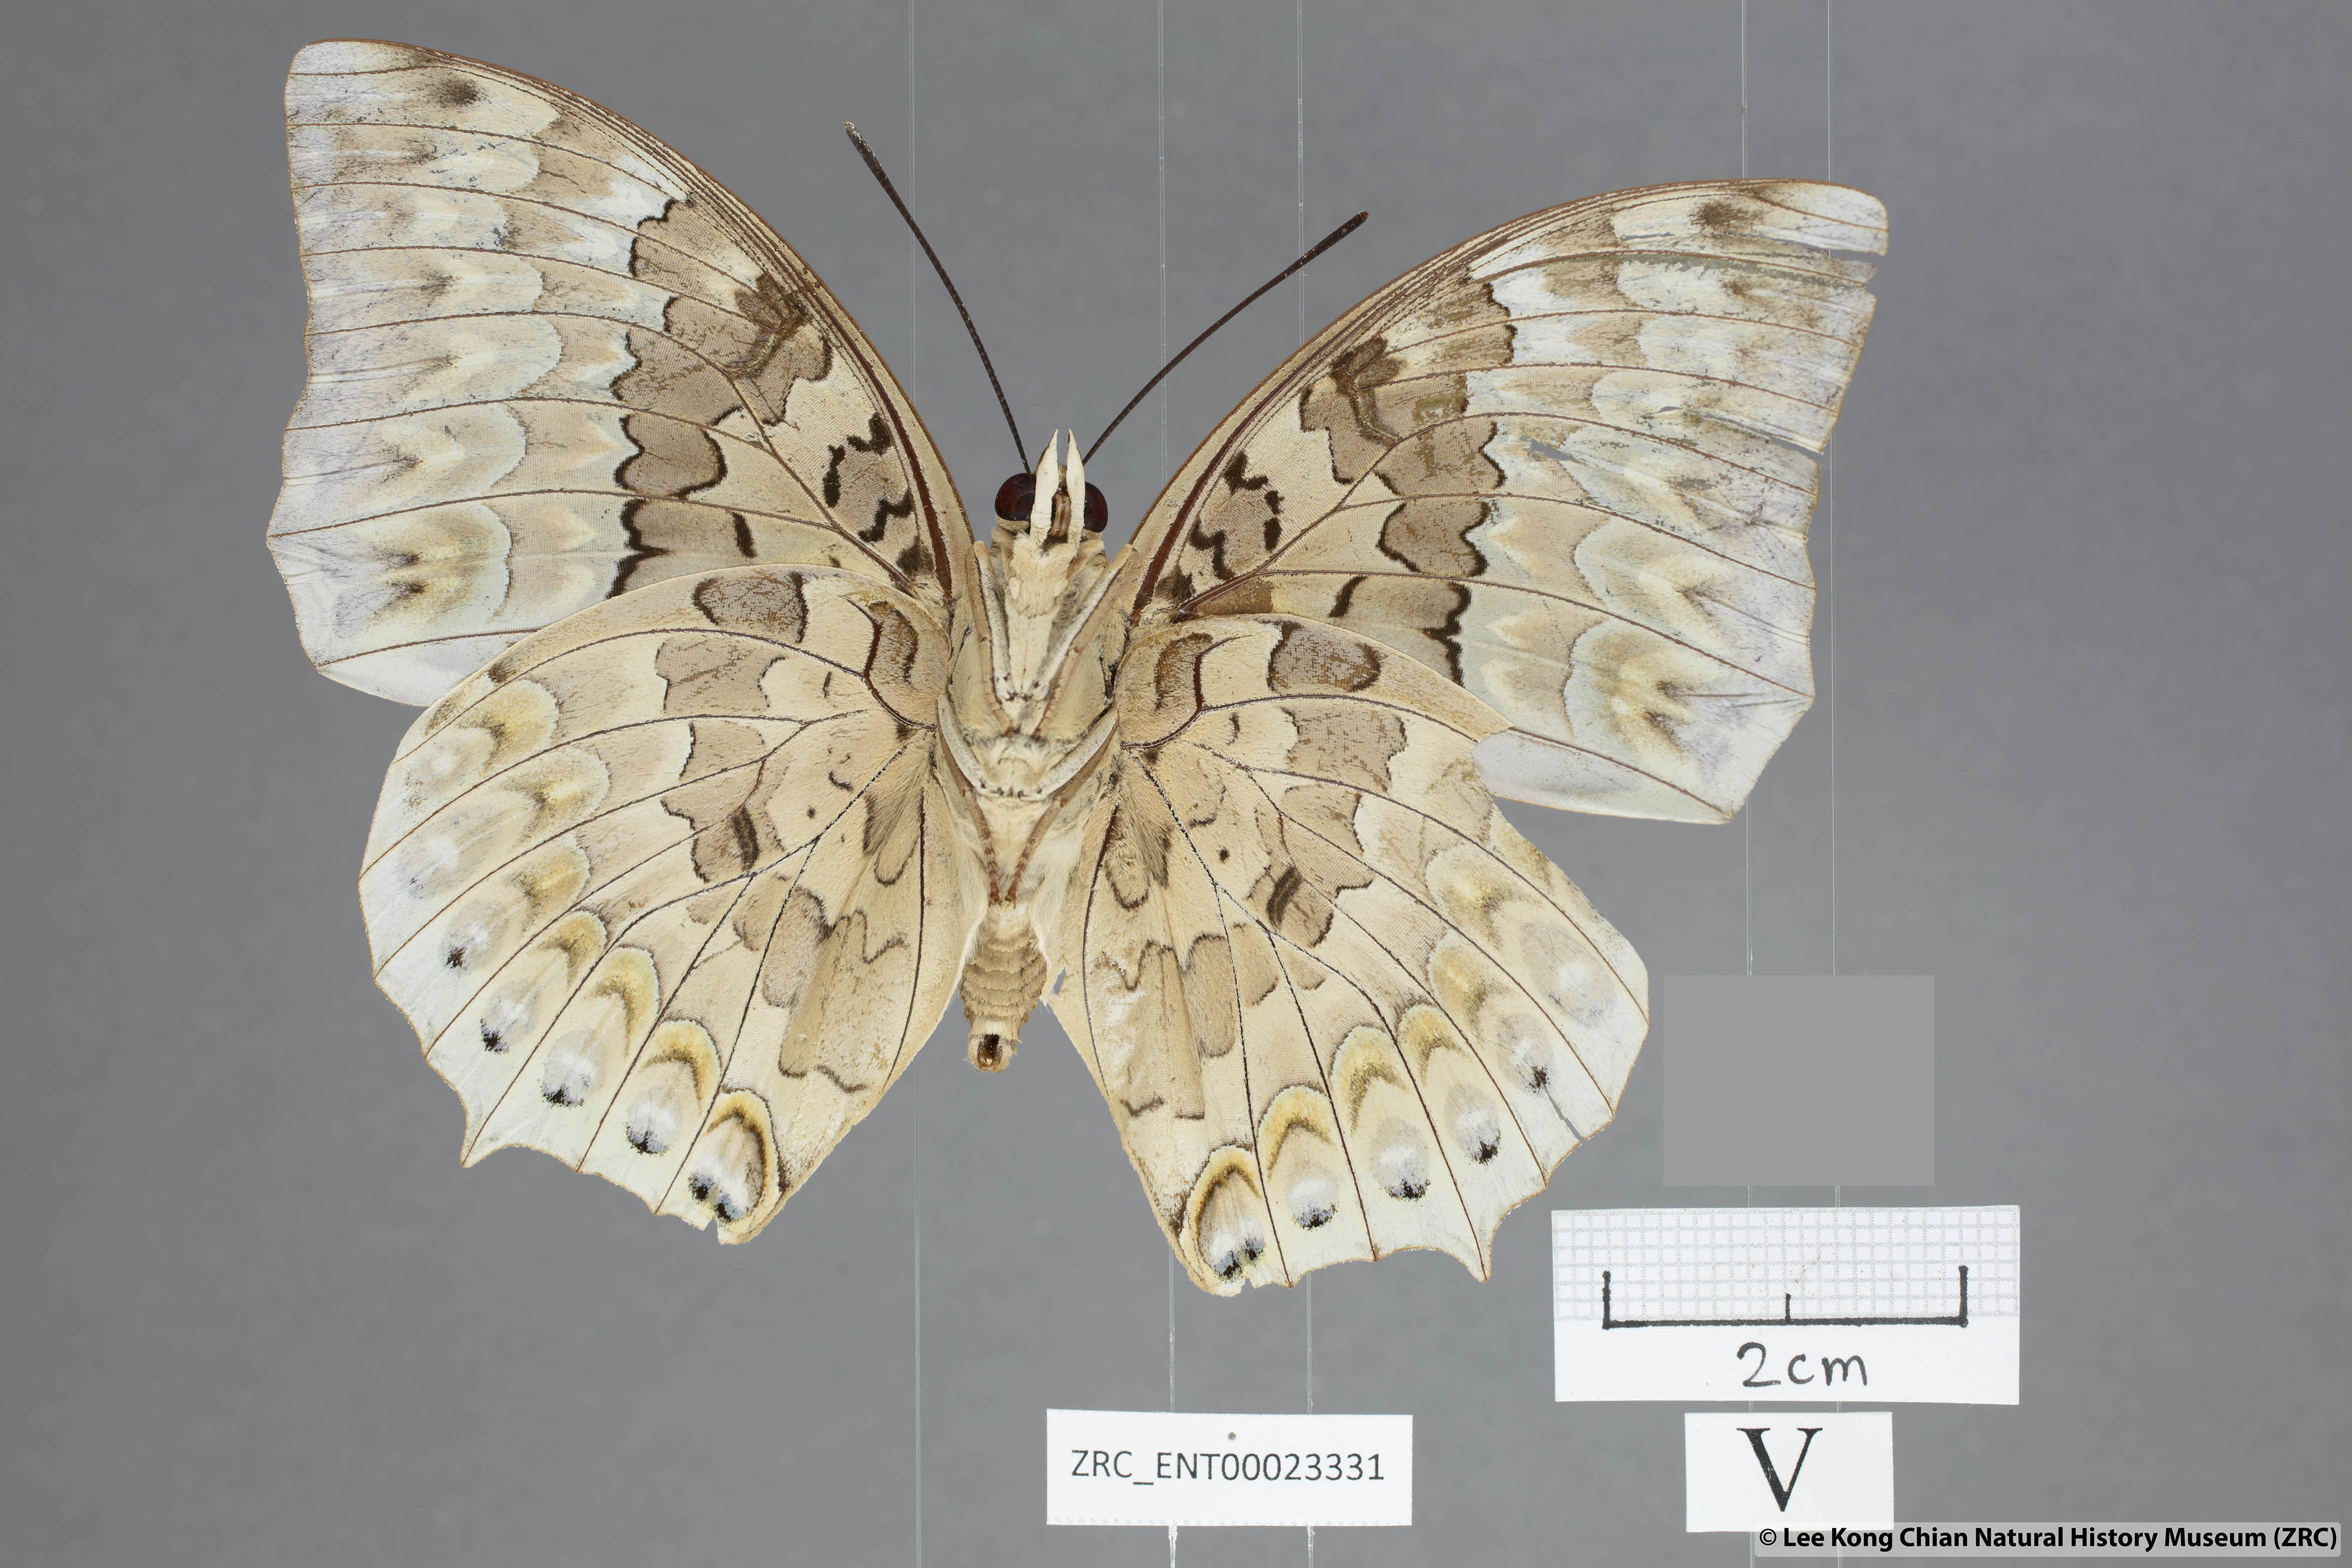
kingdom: Animalia
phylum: Arthropoda
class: Insecta
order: Lepidoptera
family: Nymphalidae
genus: Charaxes
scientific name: Charaxes durnfordi
